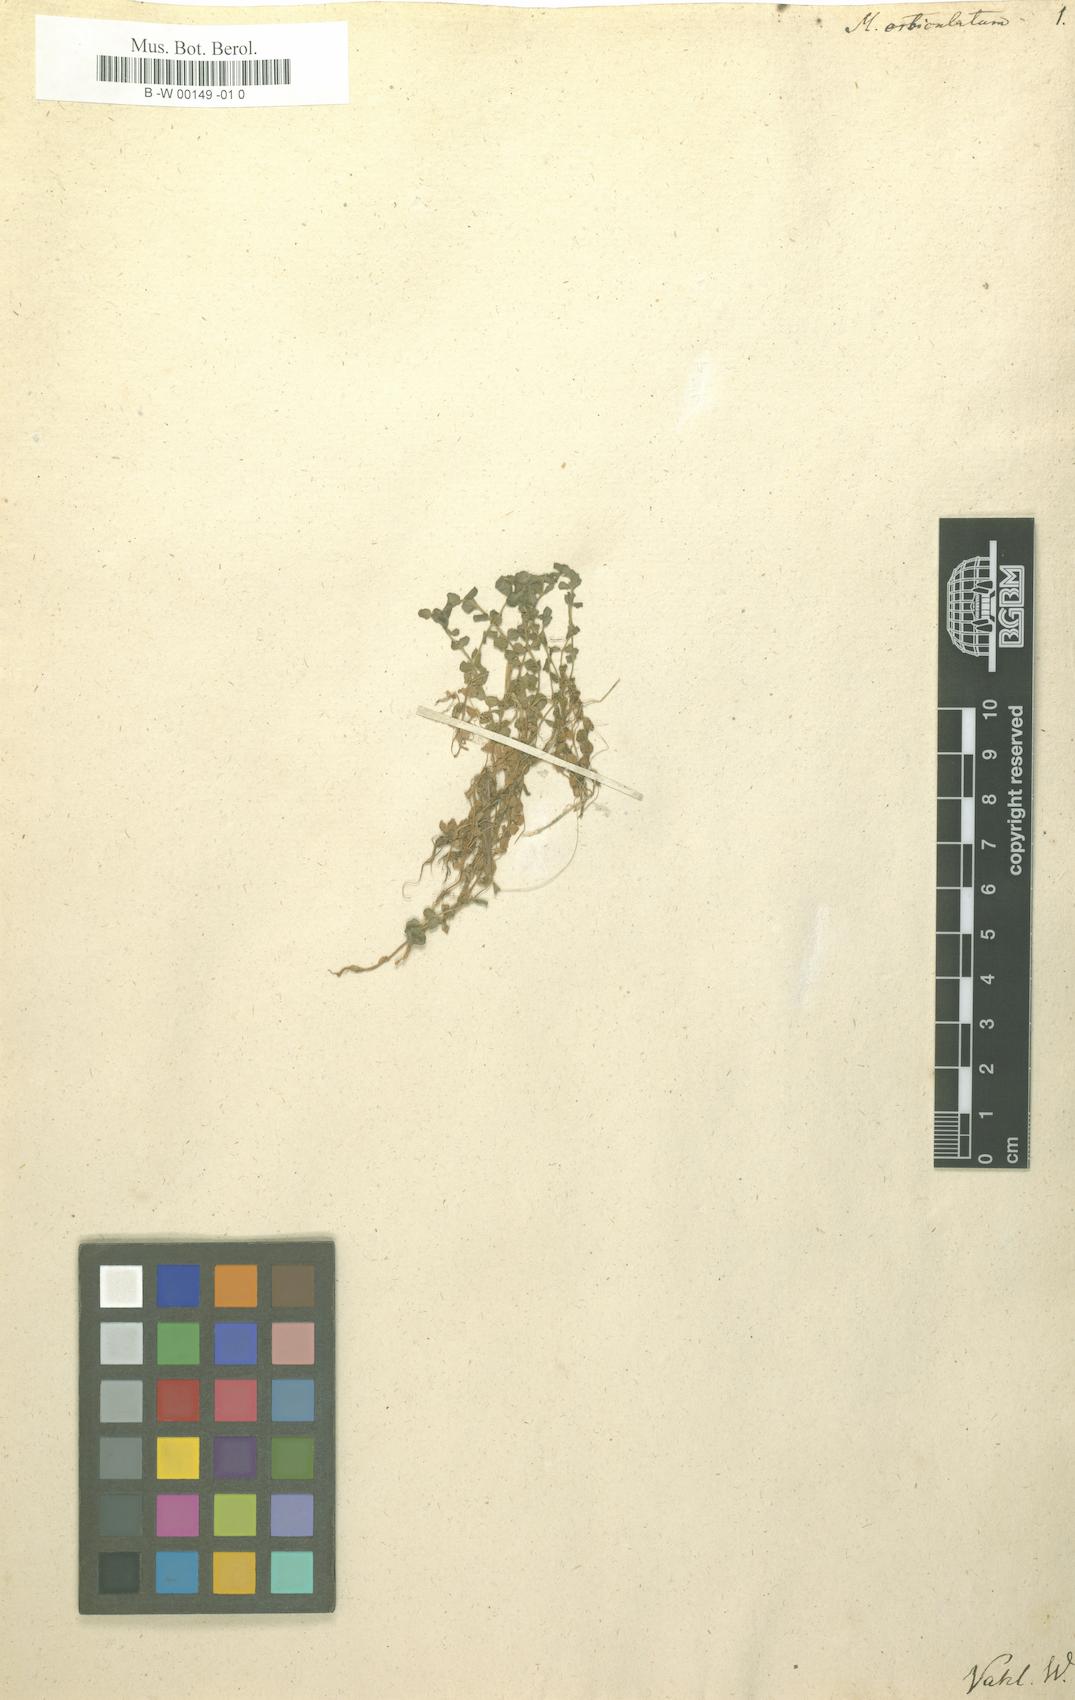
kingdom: Plantae
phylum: Tracheophyta
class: Magnoliopsida
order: Lamiales
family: Linderniaceae
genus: Micranthemum
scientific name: Micranthemum
